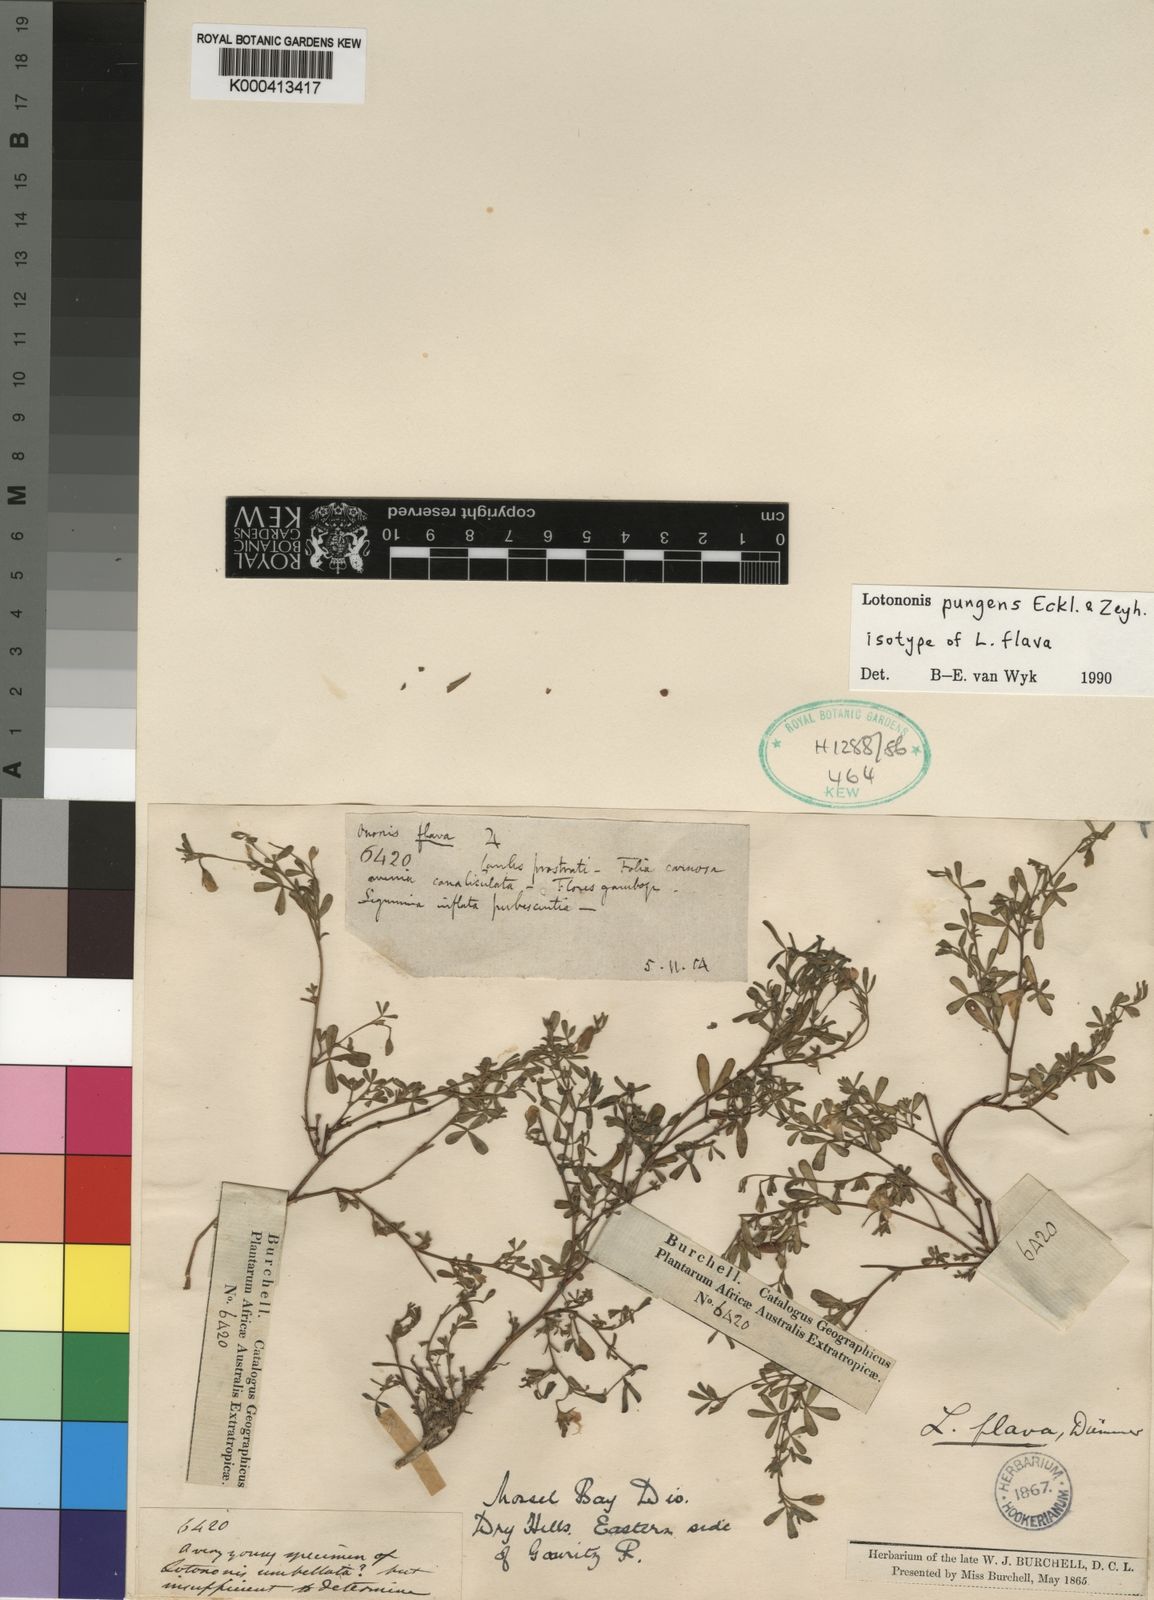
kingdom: Plantae
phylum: Tracheophyta
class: Magnoliopsida
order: Fabales
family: Fabaceae
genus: Lotononis
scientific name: Lotononis pungens
